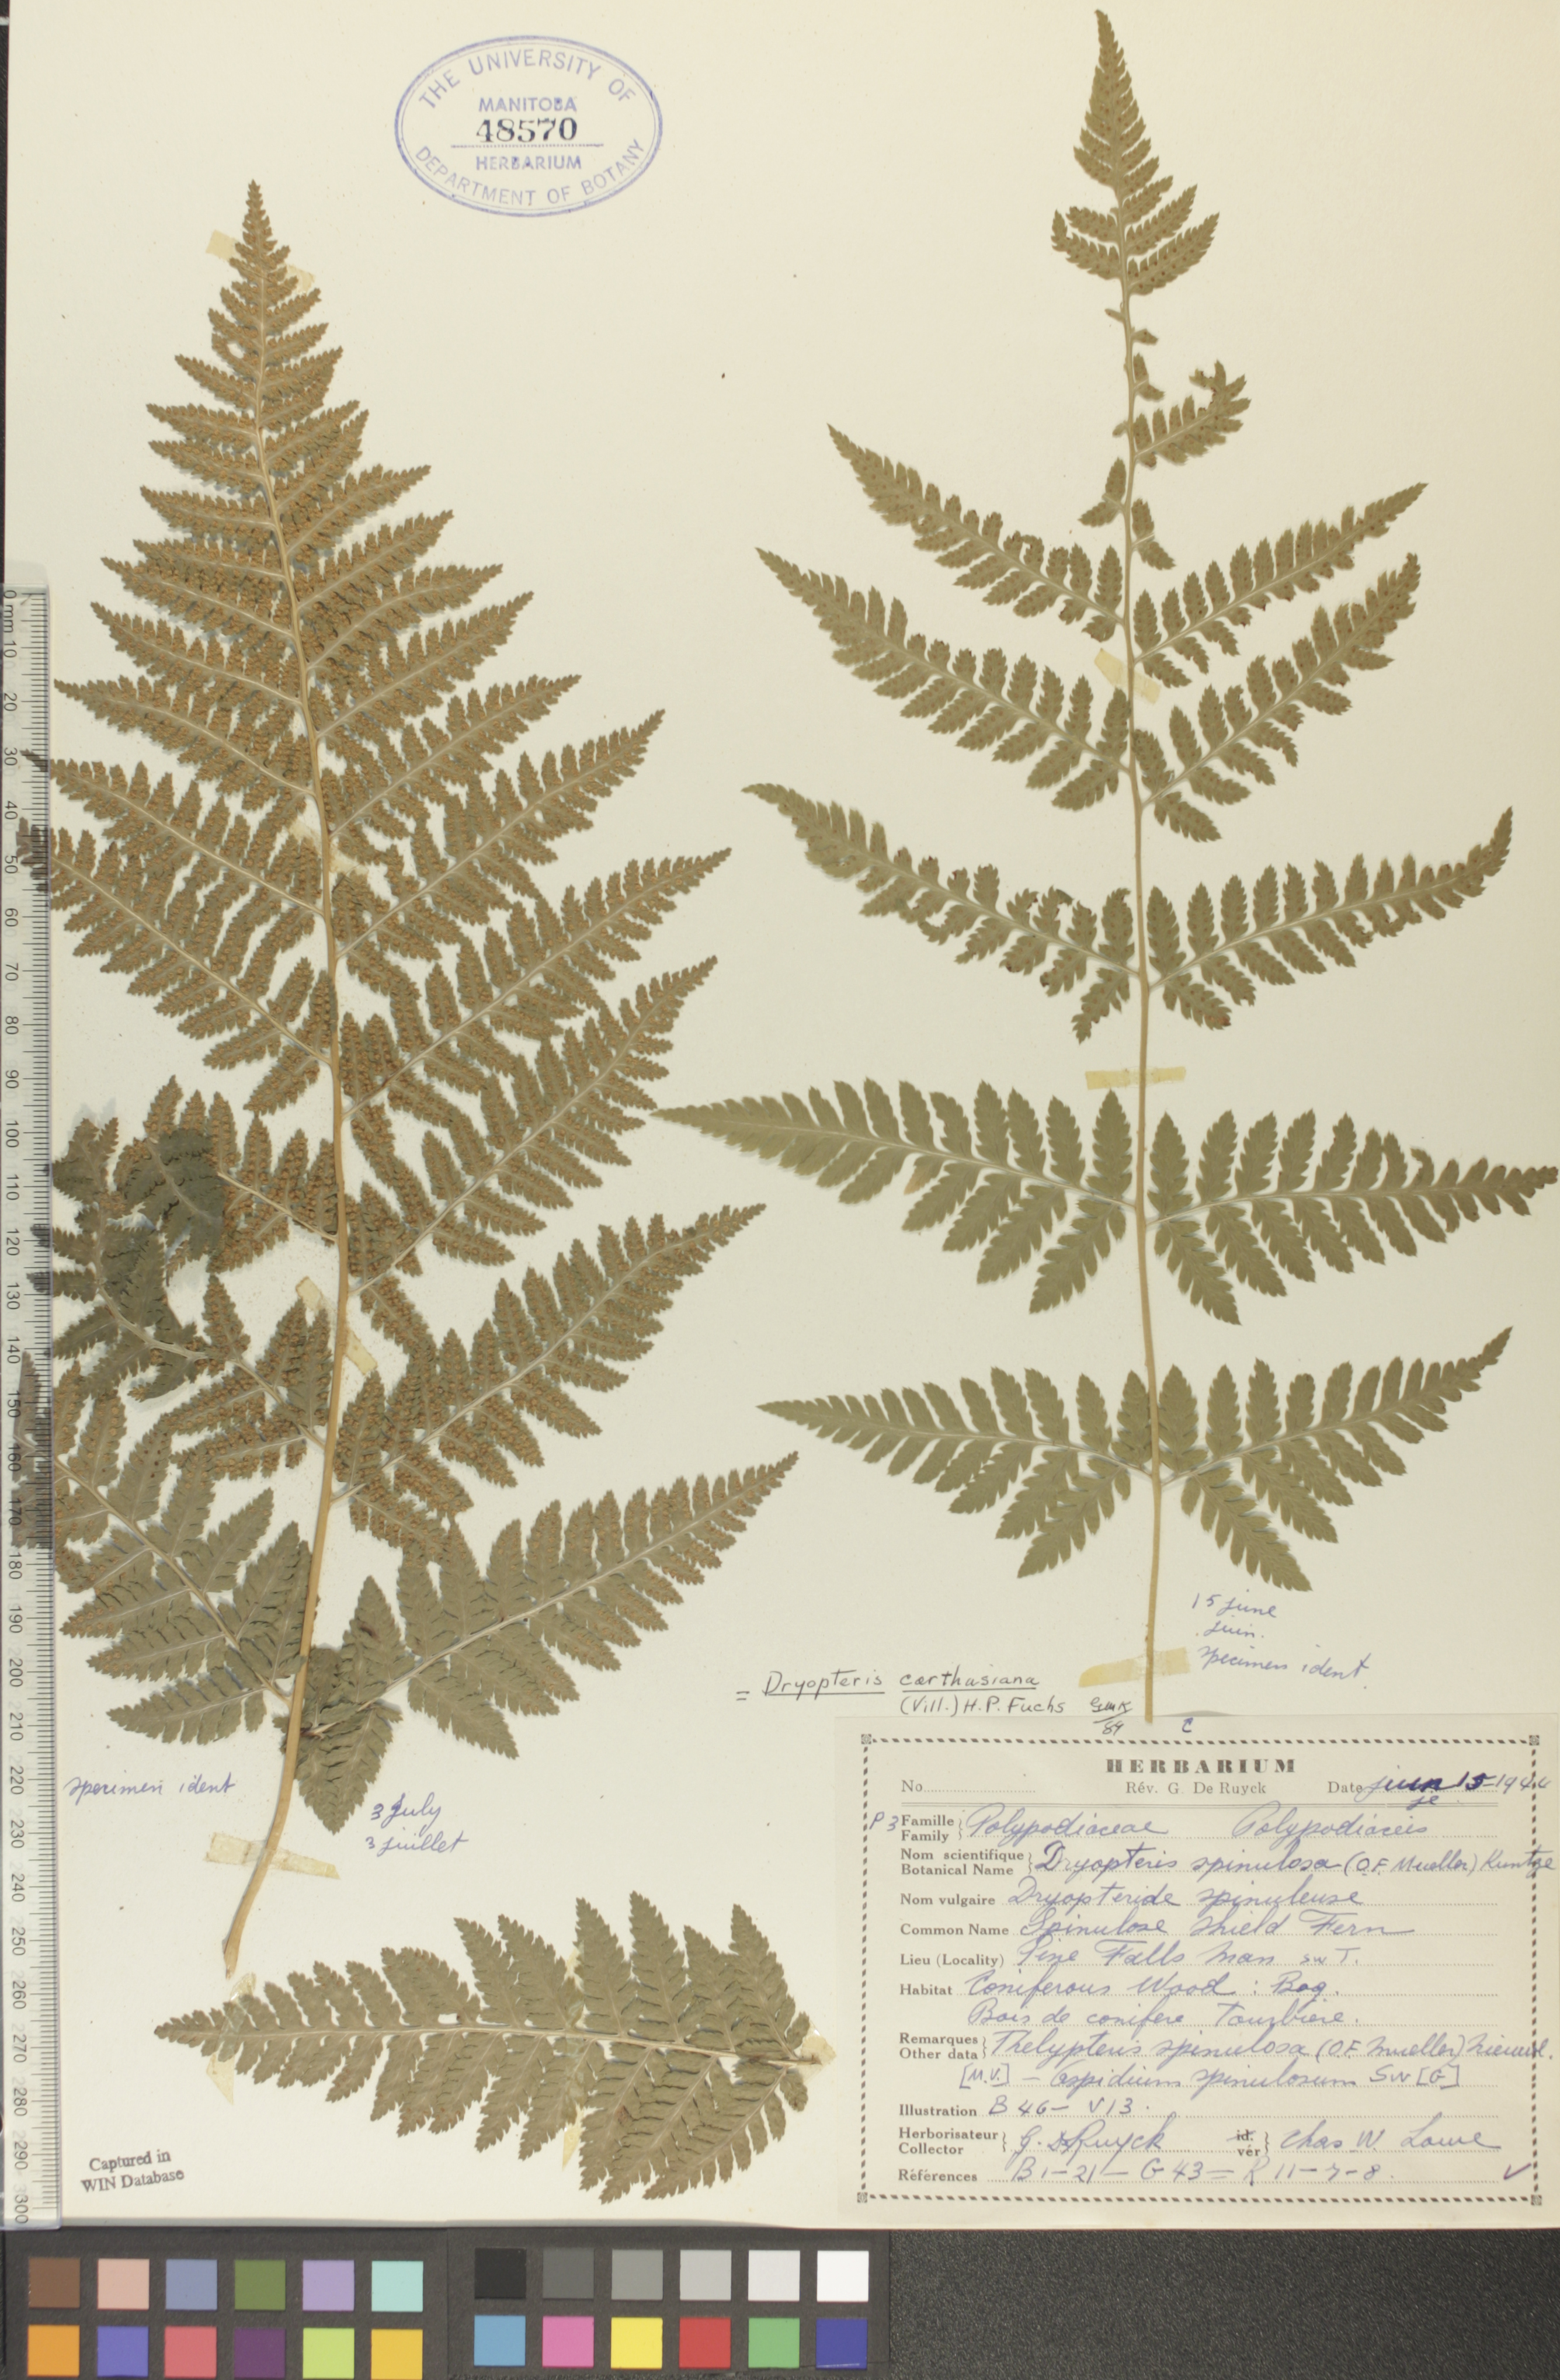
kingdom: Plantae
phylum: Tracheophyta
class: Polypodiopsida
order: Polypodiales
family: Dryopteridaceae
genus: Dryopteris
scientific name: Dryopteris carthusiana
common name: Narrow buckler-fern
